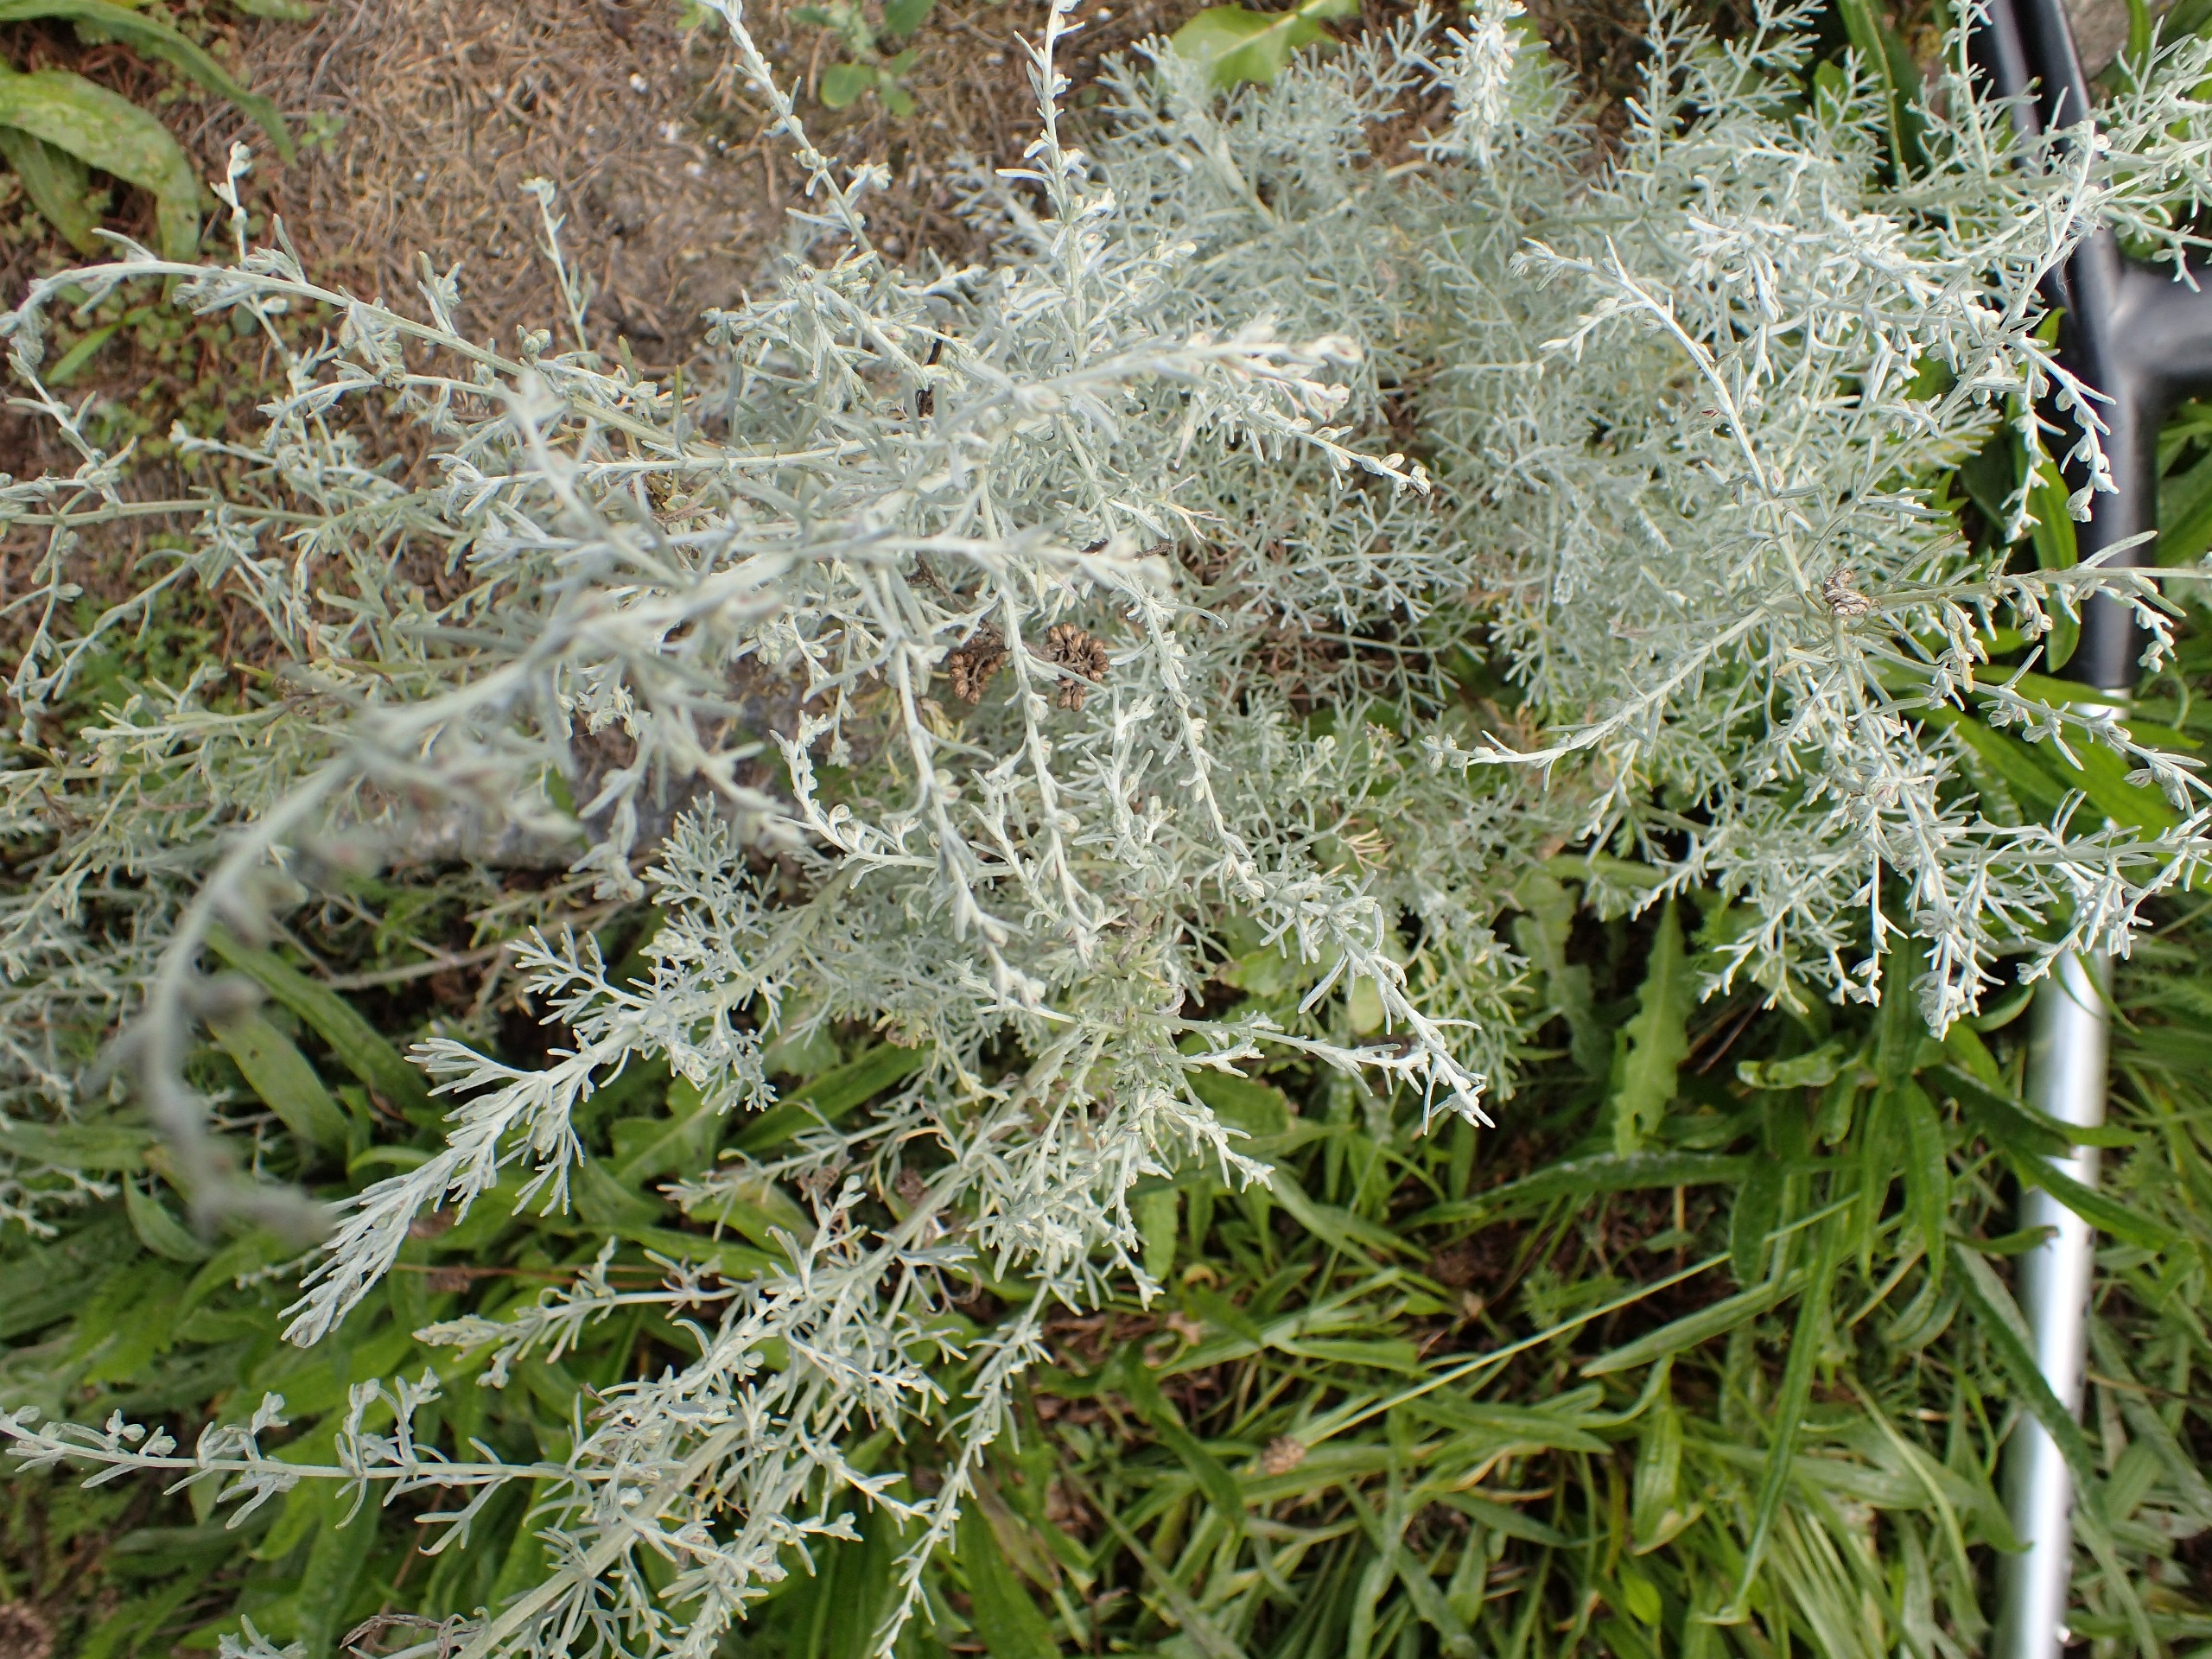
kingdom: Plantae
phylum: Tracheophyta
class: Magnoliopsida
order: Asterales
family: Asteraceae
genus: Artemisia
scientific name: Artemisia maritima
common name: Strandmalurt
